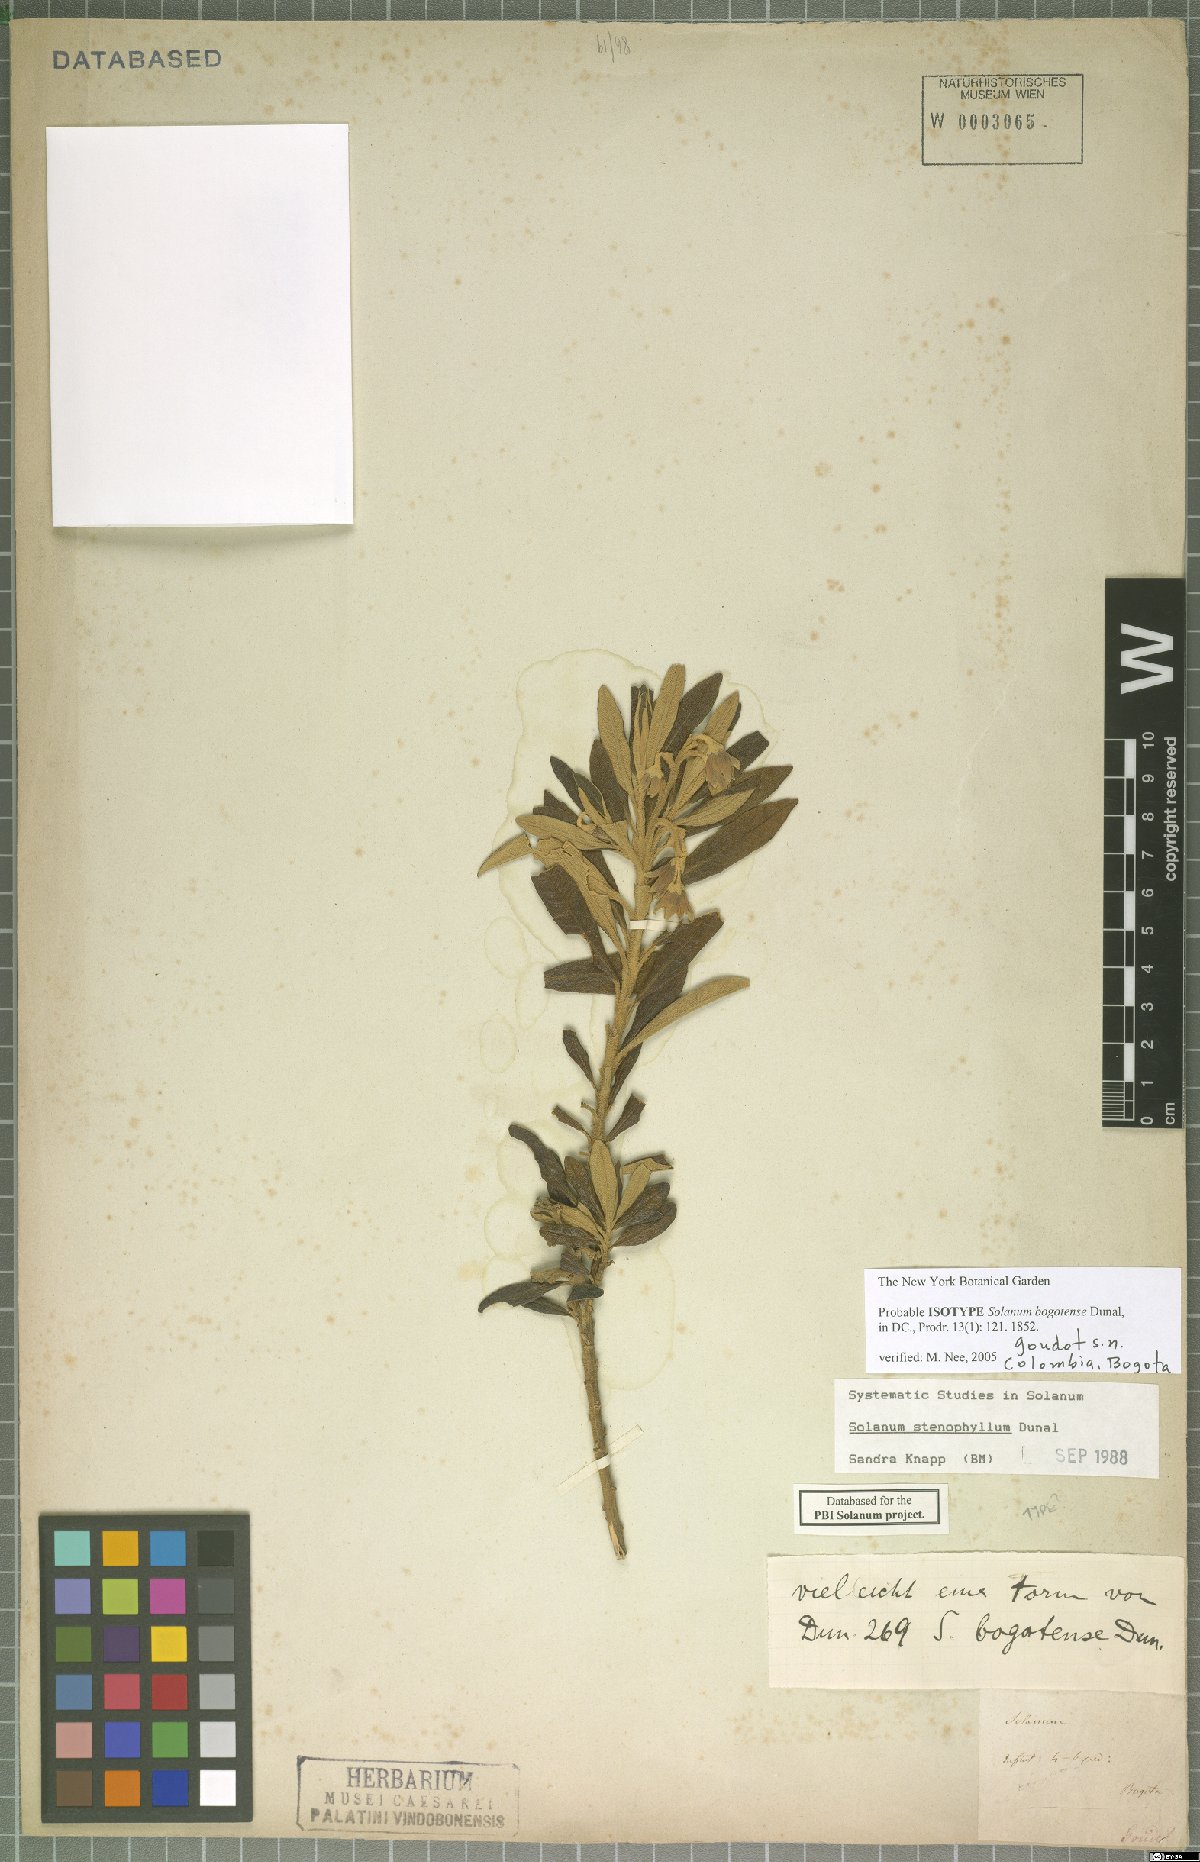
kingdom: Plantae
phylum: Tracheophyta
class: Magnoliopsida
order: Solanales
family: Solanaceae
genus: Solanum
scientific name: Solanum stenophyllum
